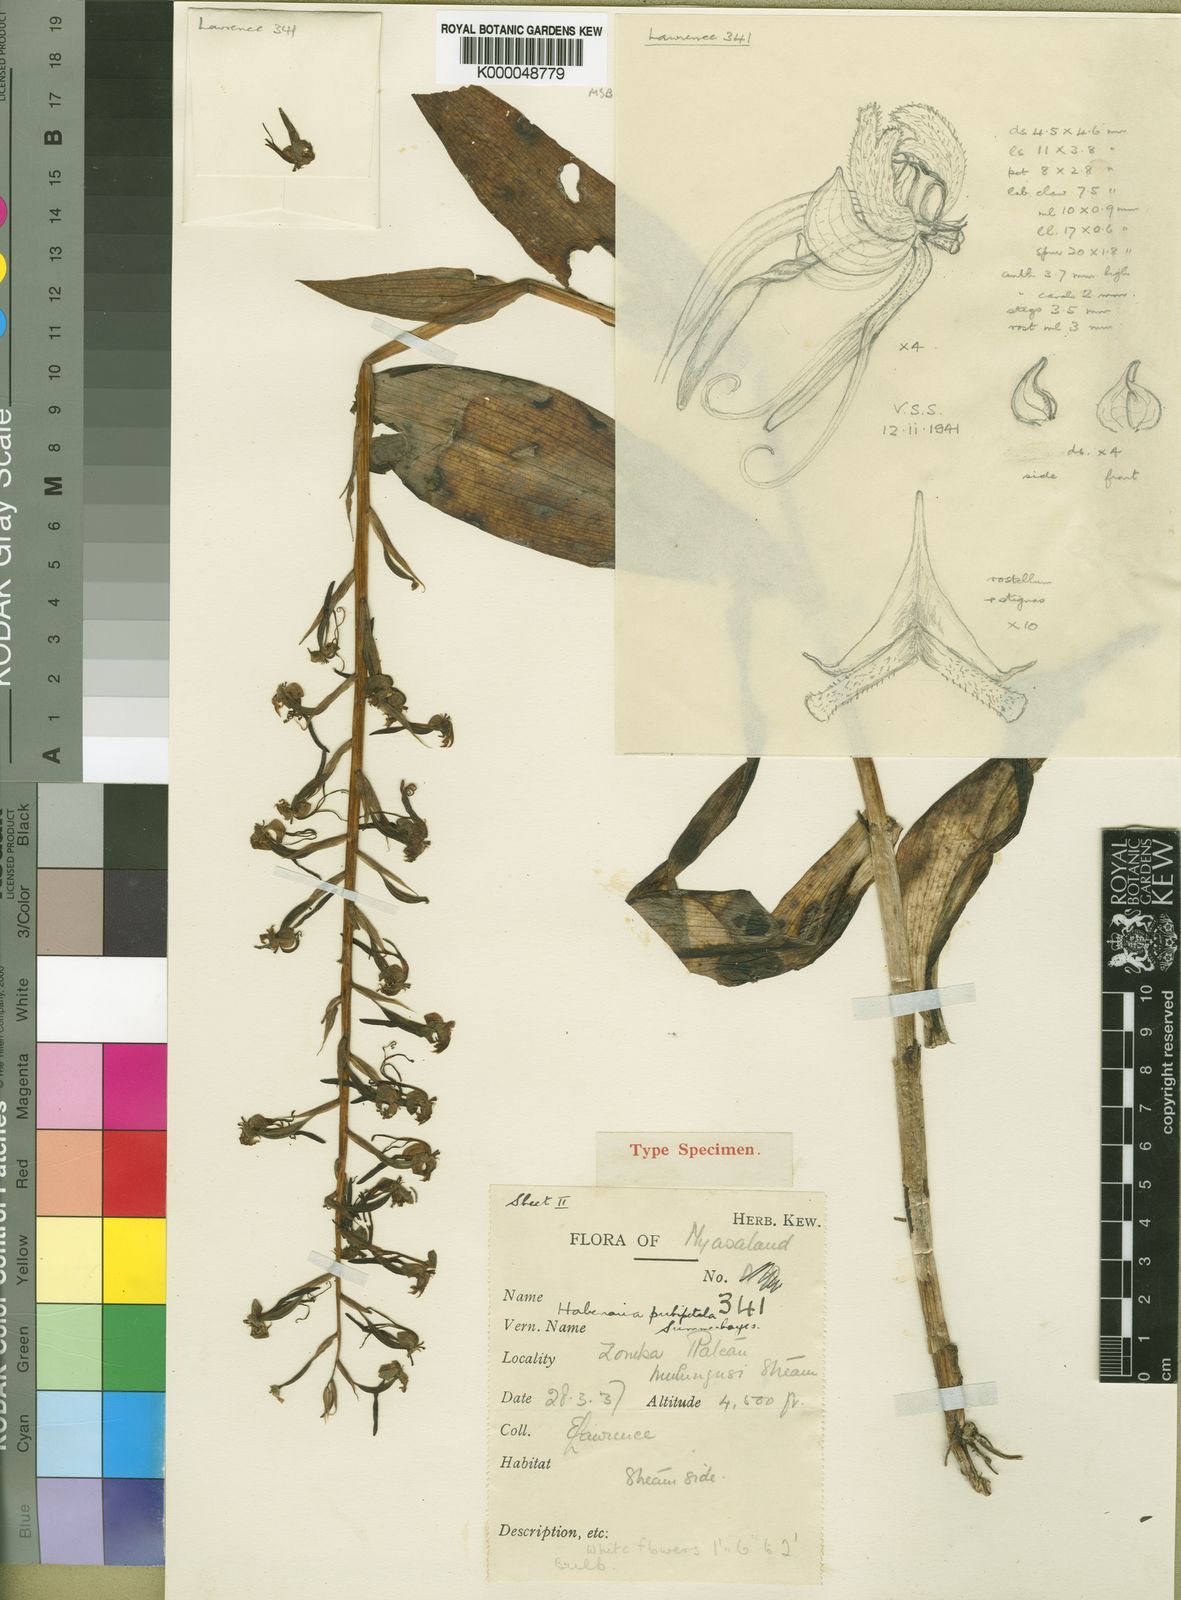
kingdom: Plantae
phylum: Tracheophyta
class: Liliopsida
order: Asparagales
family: Orchidaceae
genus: Habenaria
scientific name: Habenaria pubipetala
